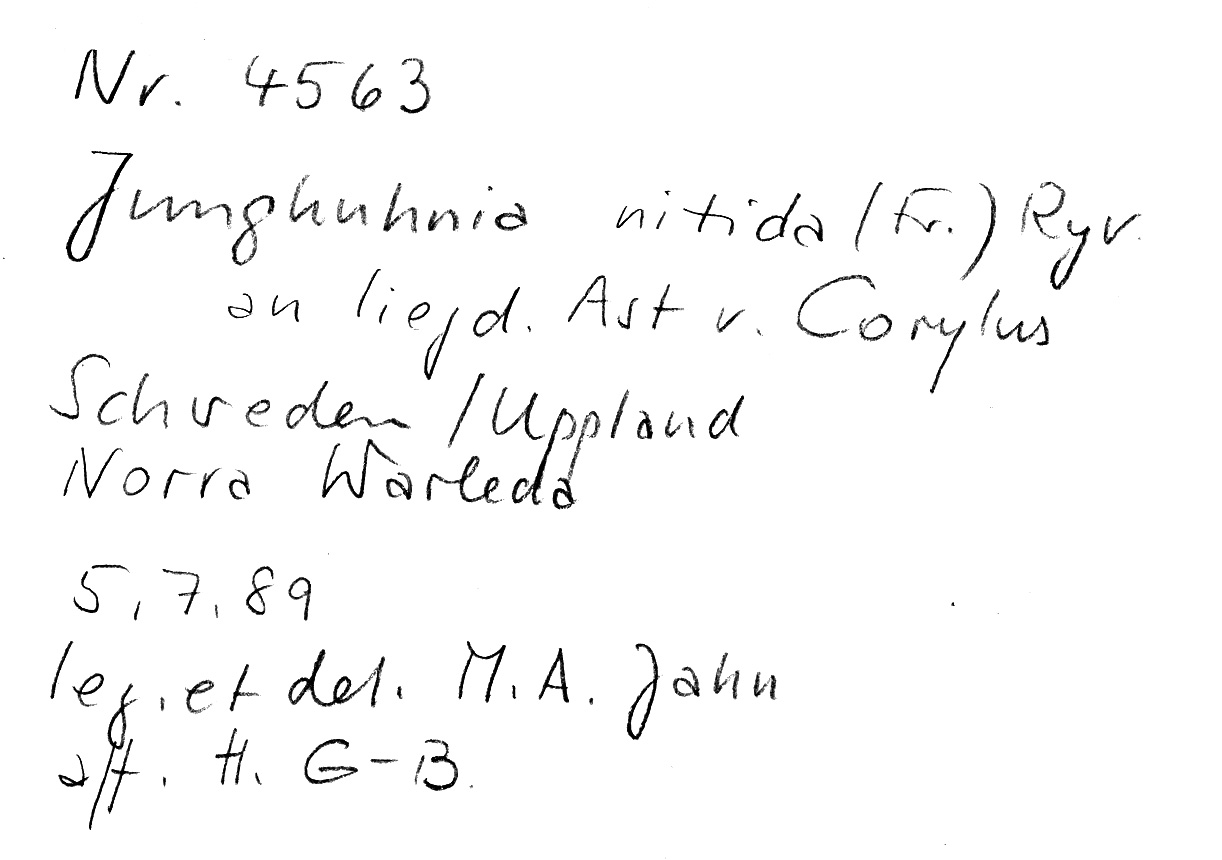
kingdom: Fungi
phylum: Basidiomycota
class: Agaricomycetes
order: Polyporales
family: Steccherinaceae
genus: Junghuhnia
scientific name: Junghuhnia nitida
